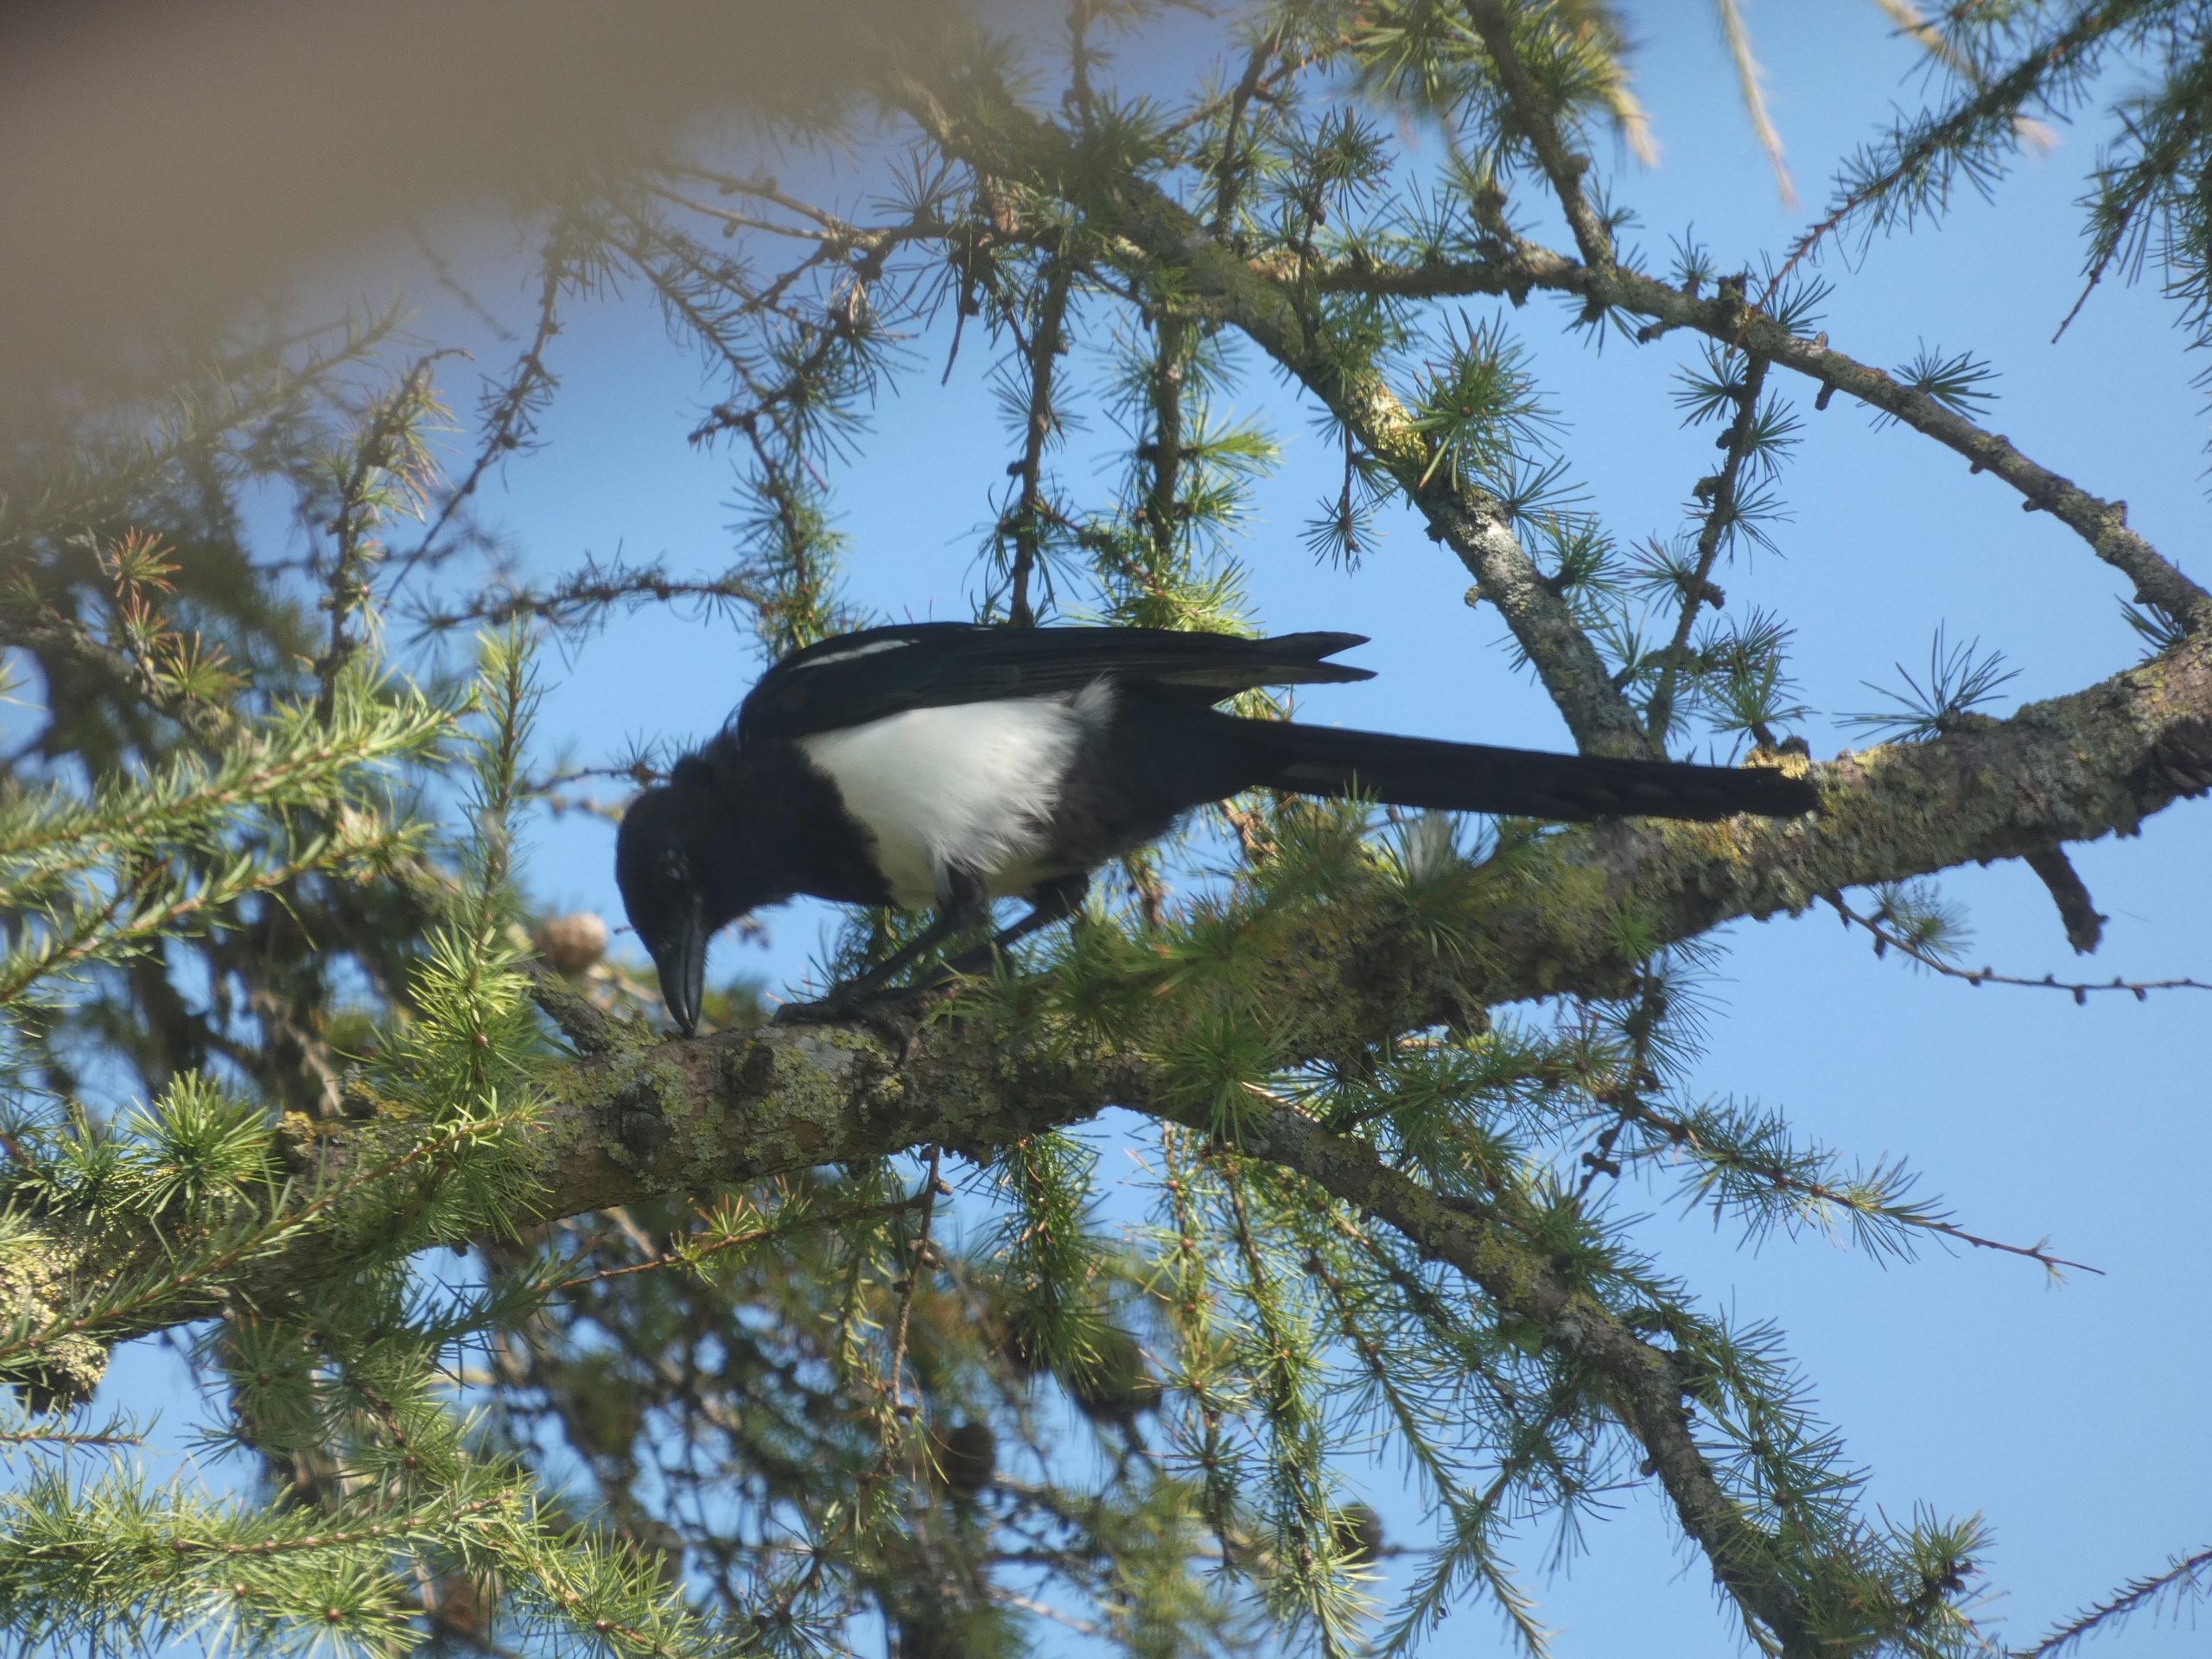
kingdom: Animalia
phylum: Chordata
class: Aves
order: Passeriformes
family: Corvidae
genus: Pica
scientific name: Pica pica
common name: Husskade
